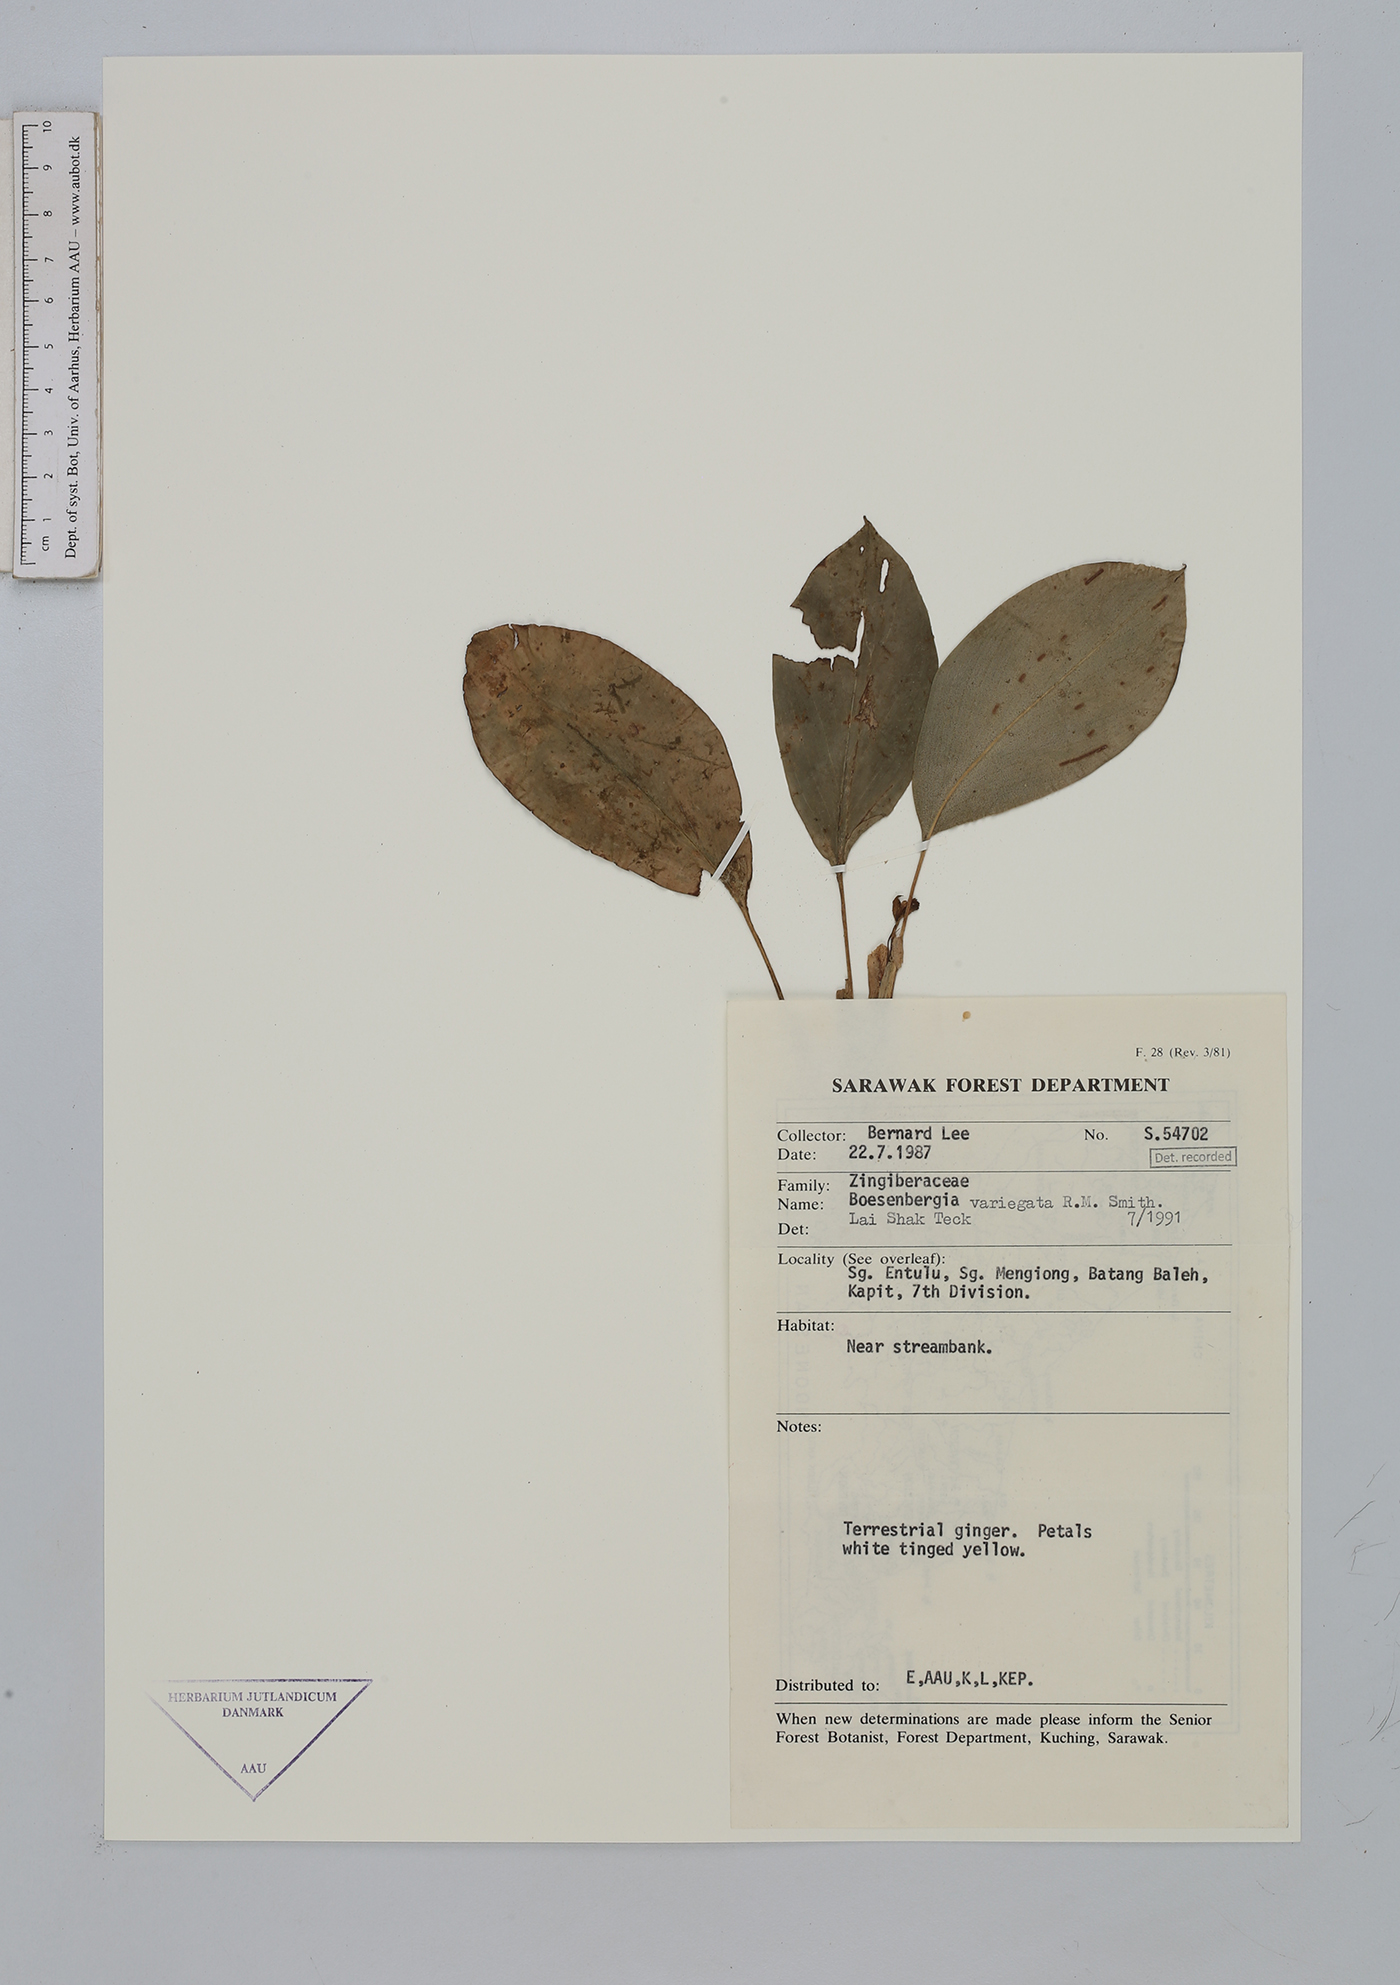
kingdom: Plantae
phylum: Tracheophyta
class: Liliopsida
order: Zingiberales
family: Zingiberaceae
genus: Boesenbergia
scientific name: Boesenbergia variegata
